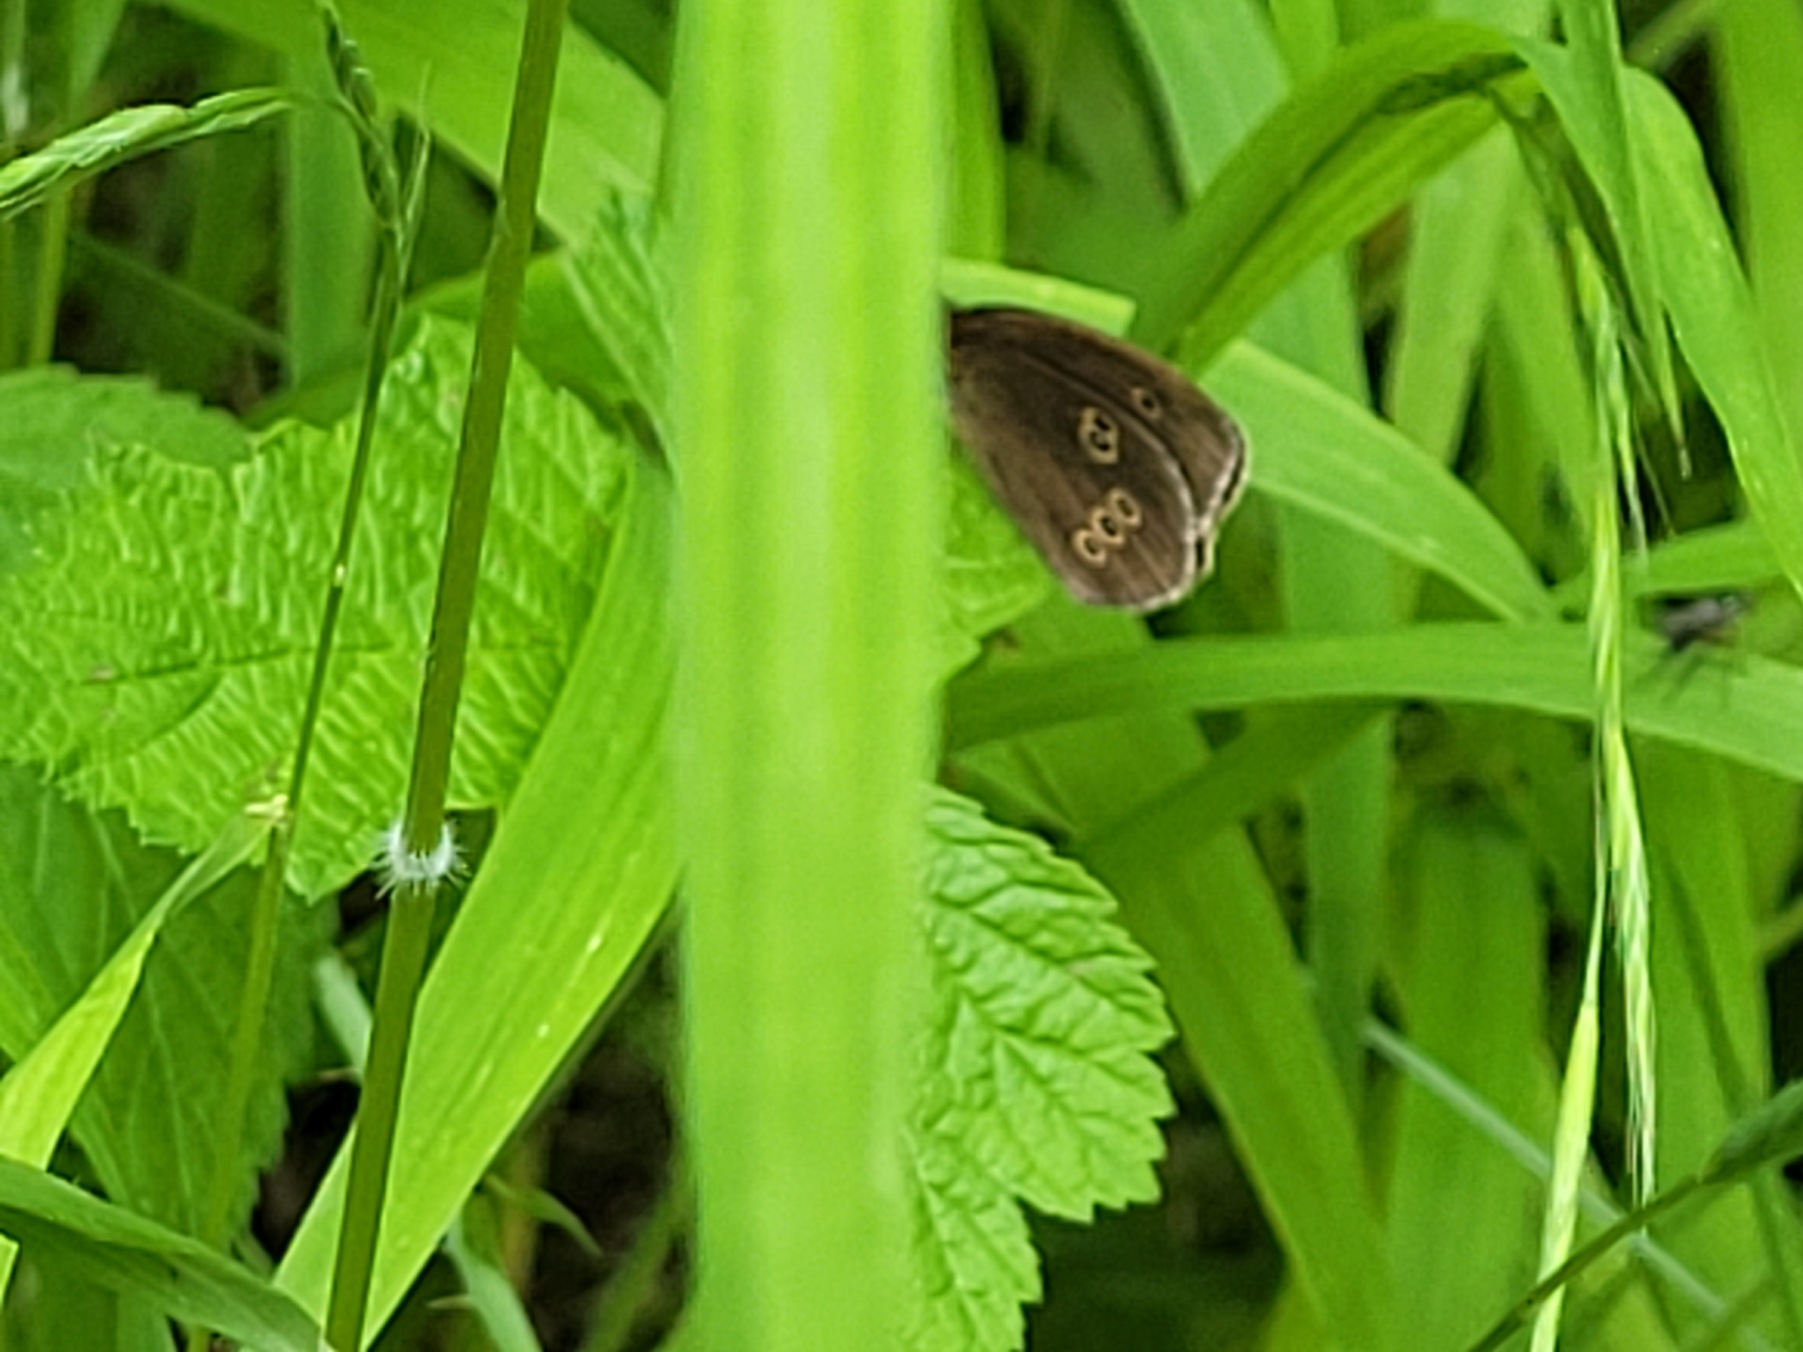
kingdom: Animalia
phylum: Arthropoda
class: Insecta
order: Lepidoptera
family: Nymphalidae
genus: Aphantopus
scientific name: Aphantopus hyperantus
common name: Engrandøje
